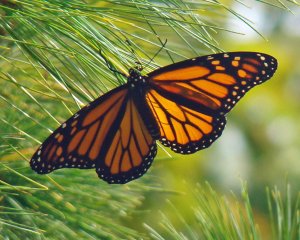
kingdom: Animalia
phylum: Arthropoda
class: Insecta
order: Lepidoptera
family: Nymphalidae
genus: Danaus
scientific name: Danaus plexippus
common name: Monarch
